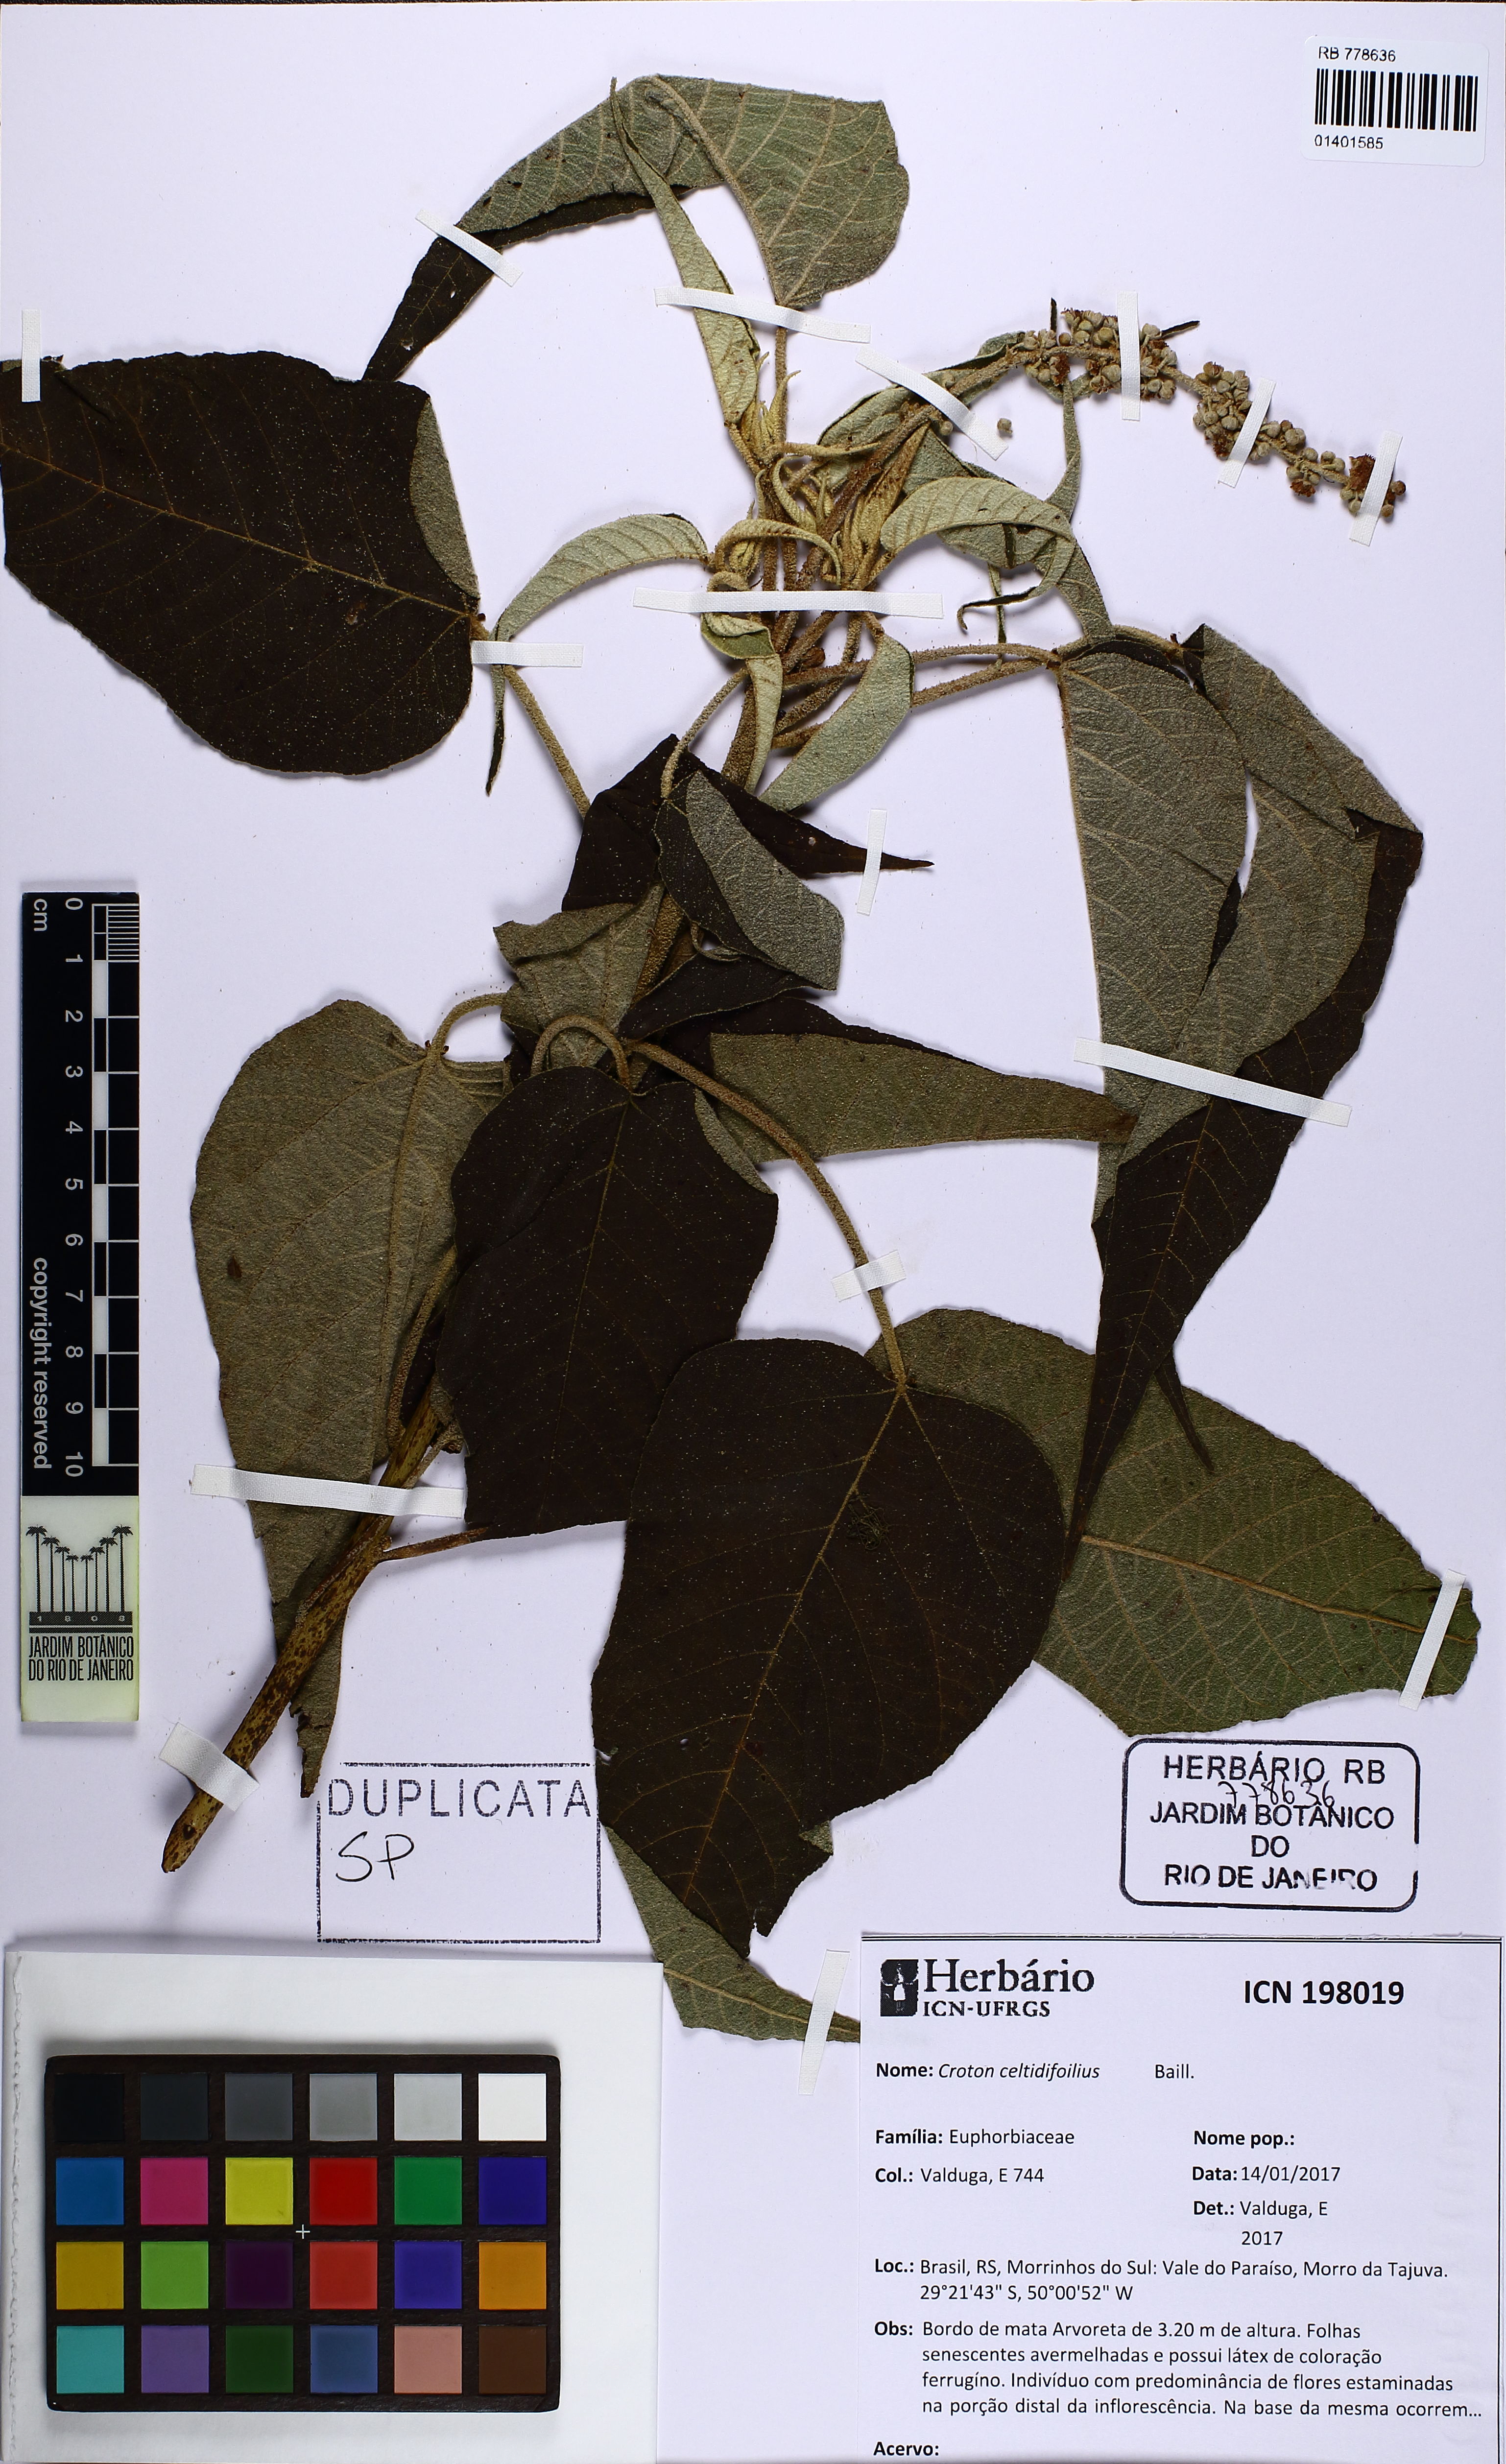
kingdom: Plantae
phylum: Tracheophyta
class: Magnoliopsida
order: Malpighiales
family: Euphorbiaceae
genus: Croton
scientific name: Croton celtidifolius
